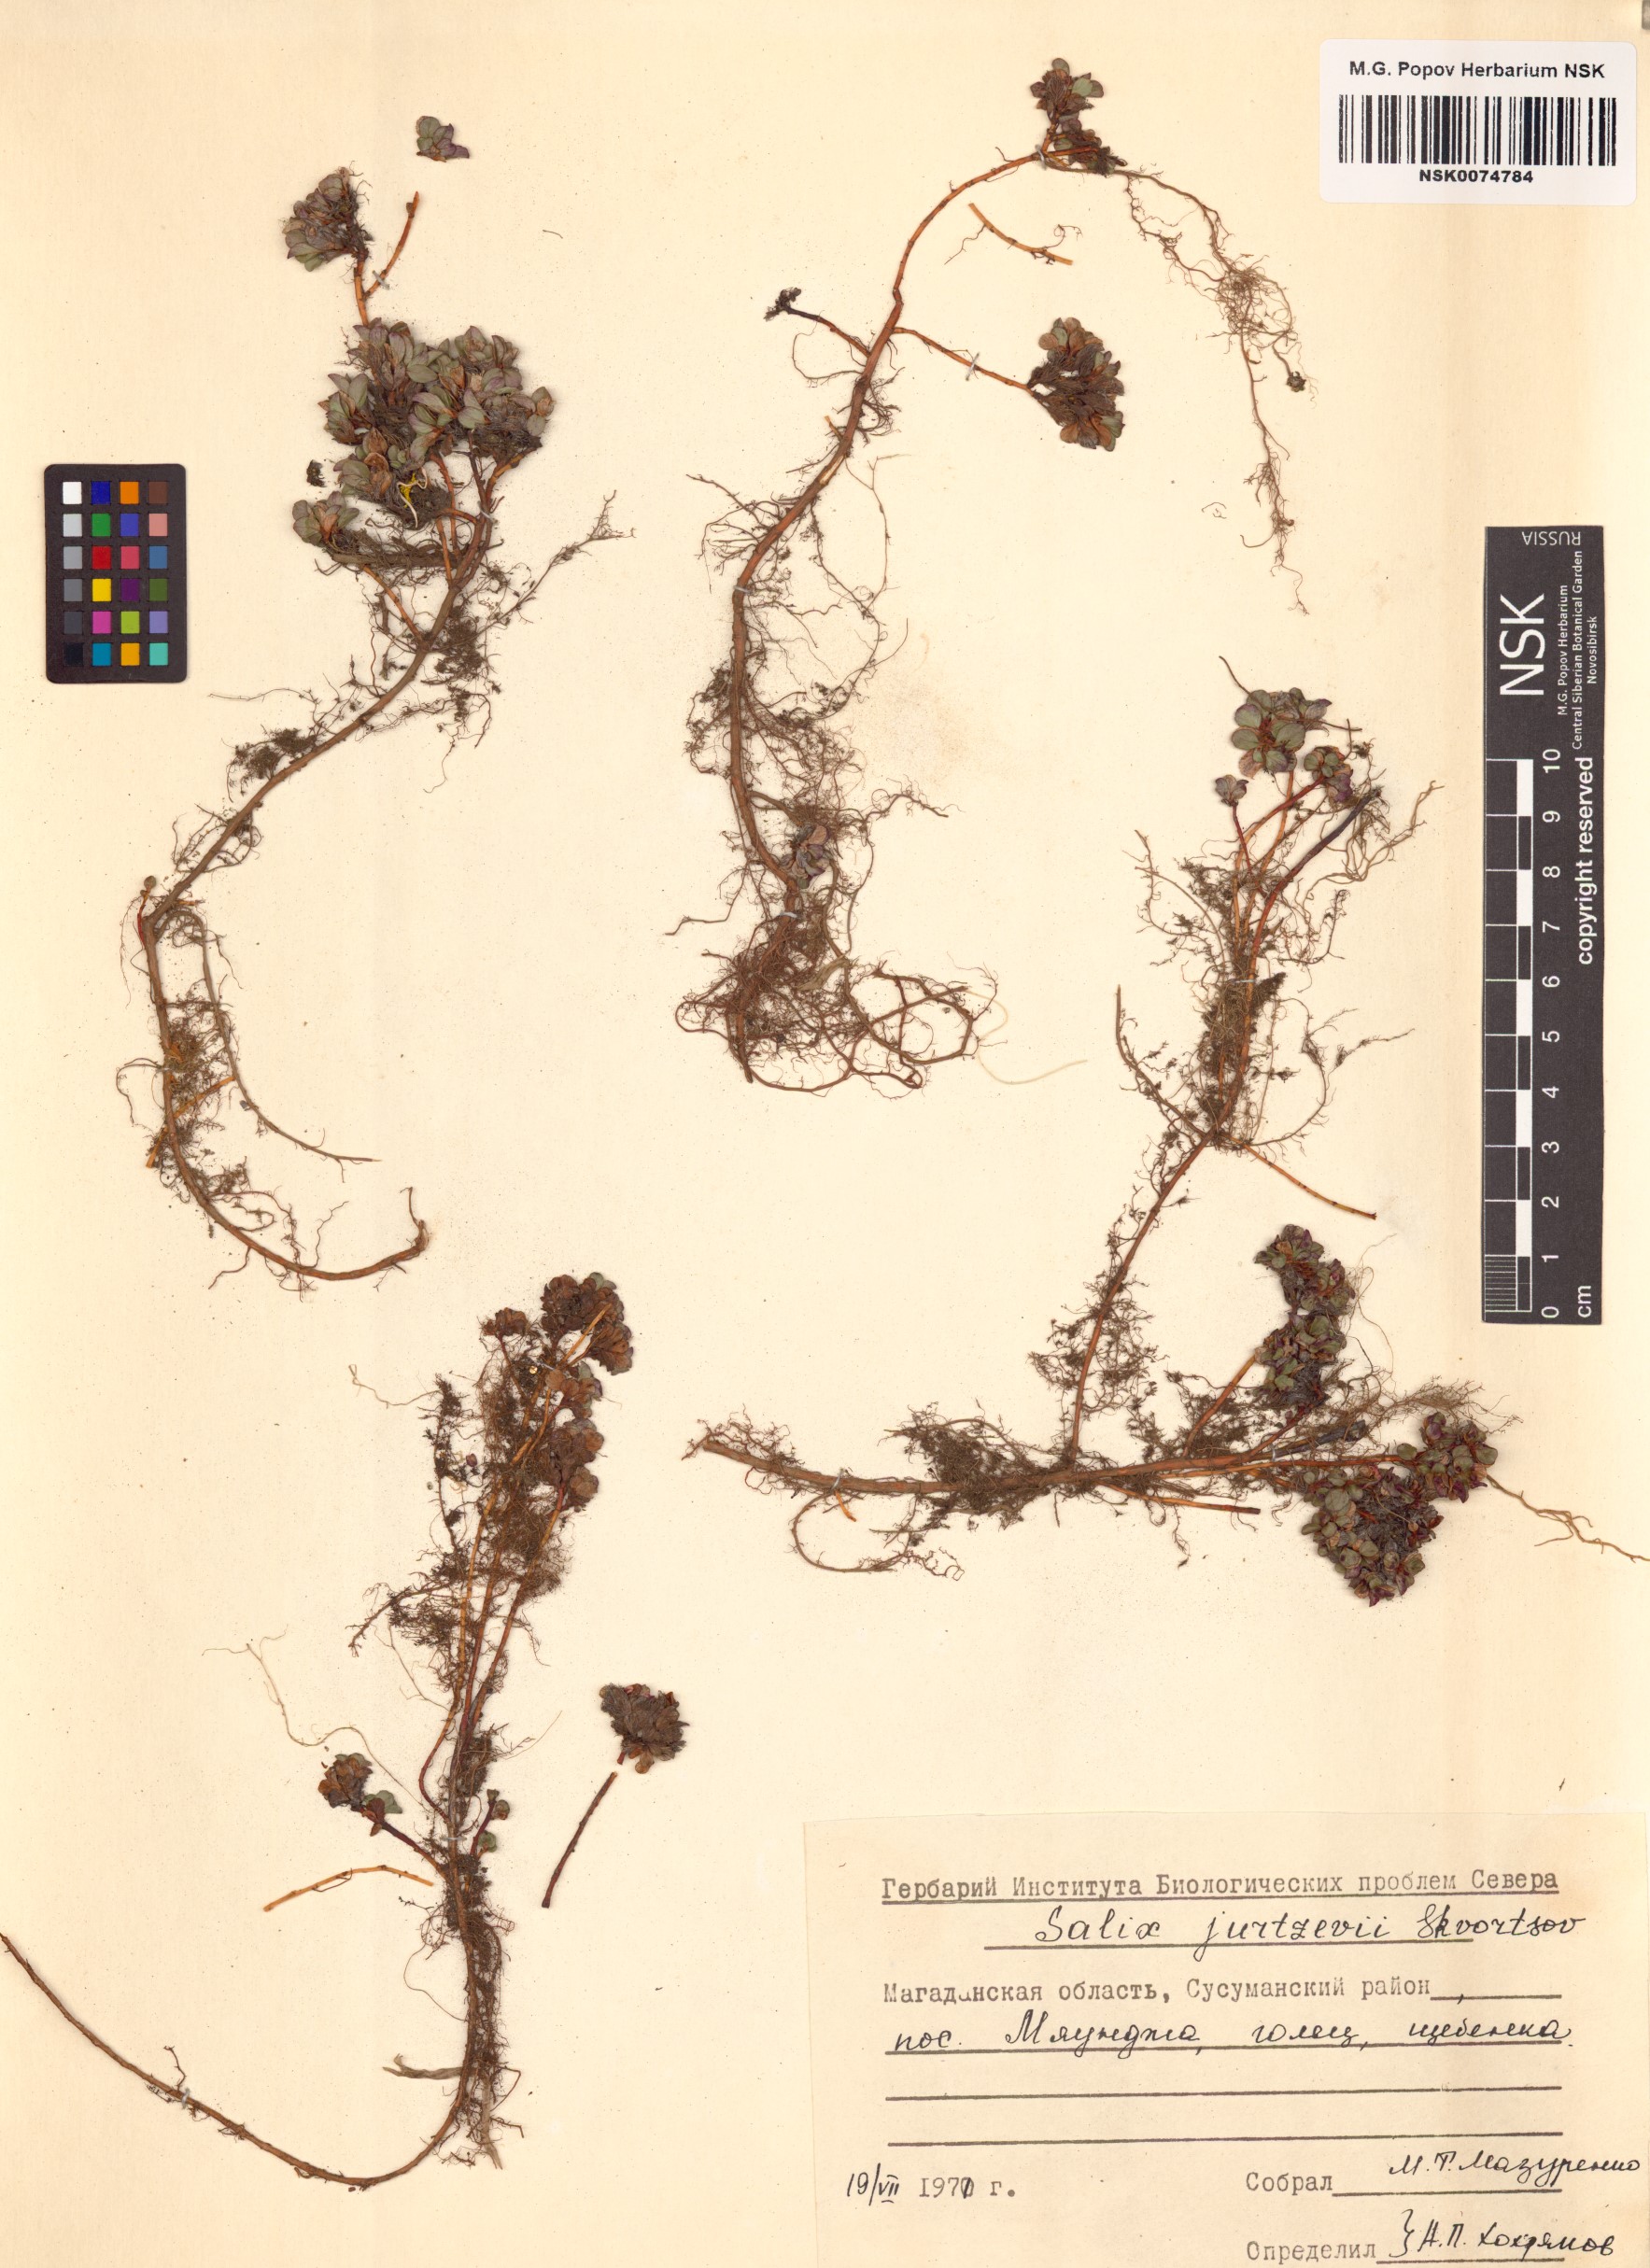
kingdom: Plantae
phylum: Tracheophyta
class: Magnoliopsida
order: Malpighiales
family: Salicaceae
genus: Salix
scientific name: Salix jurtzevii
